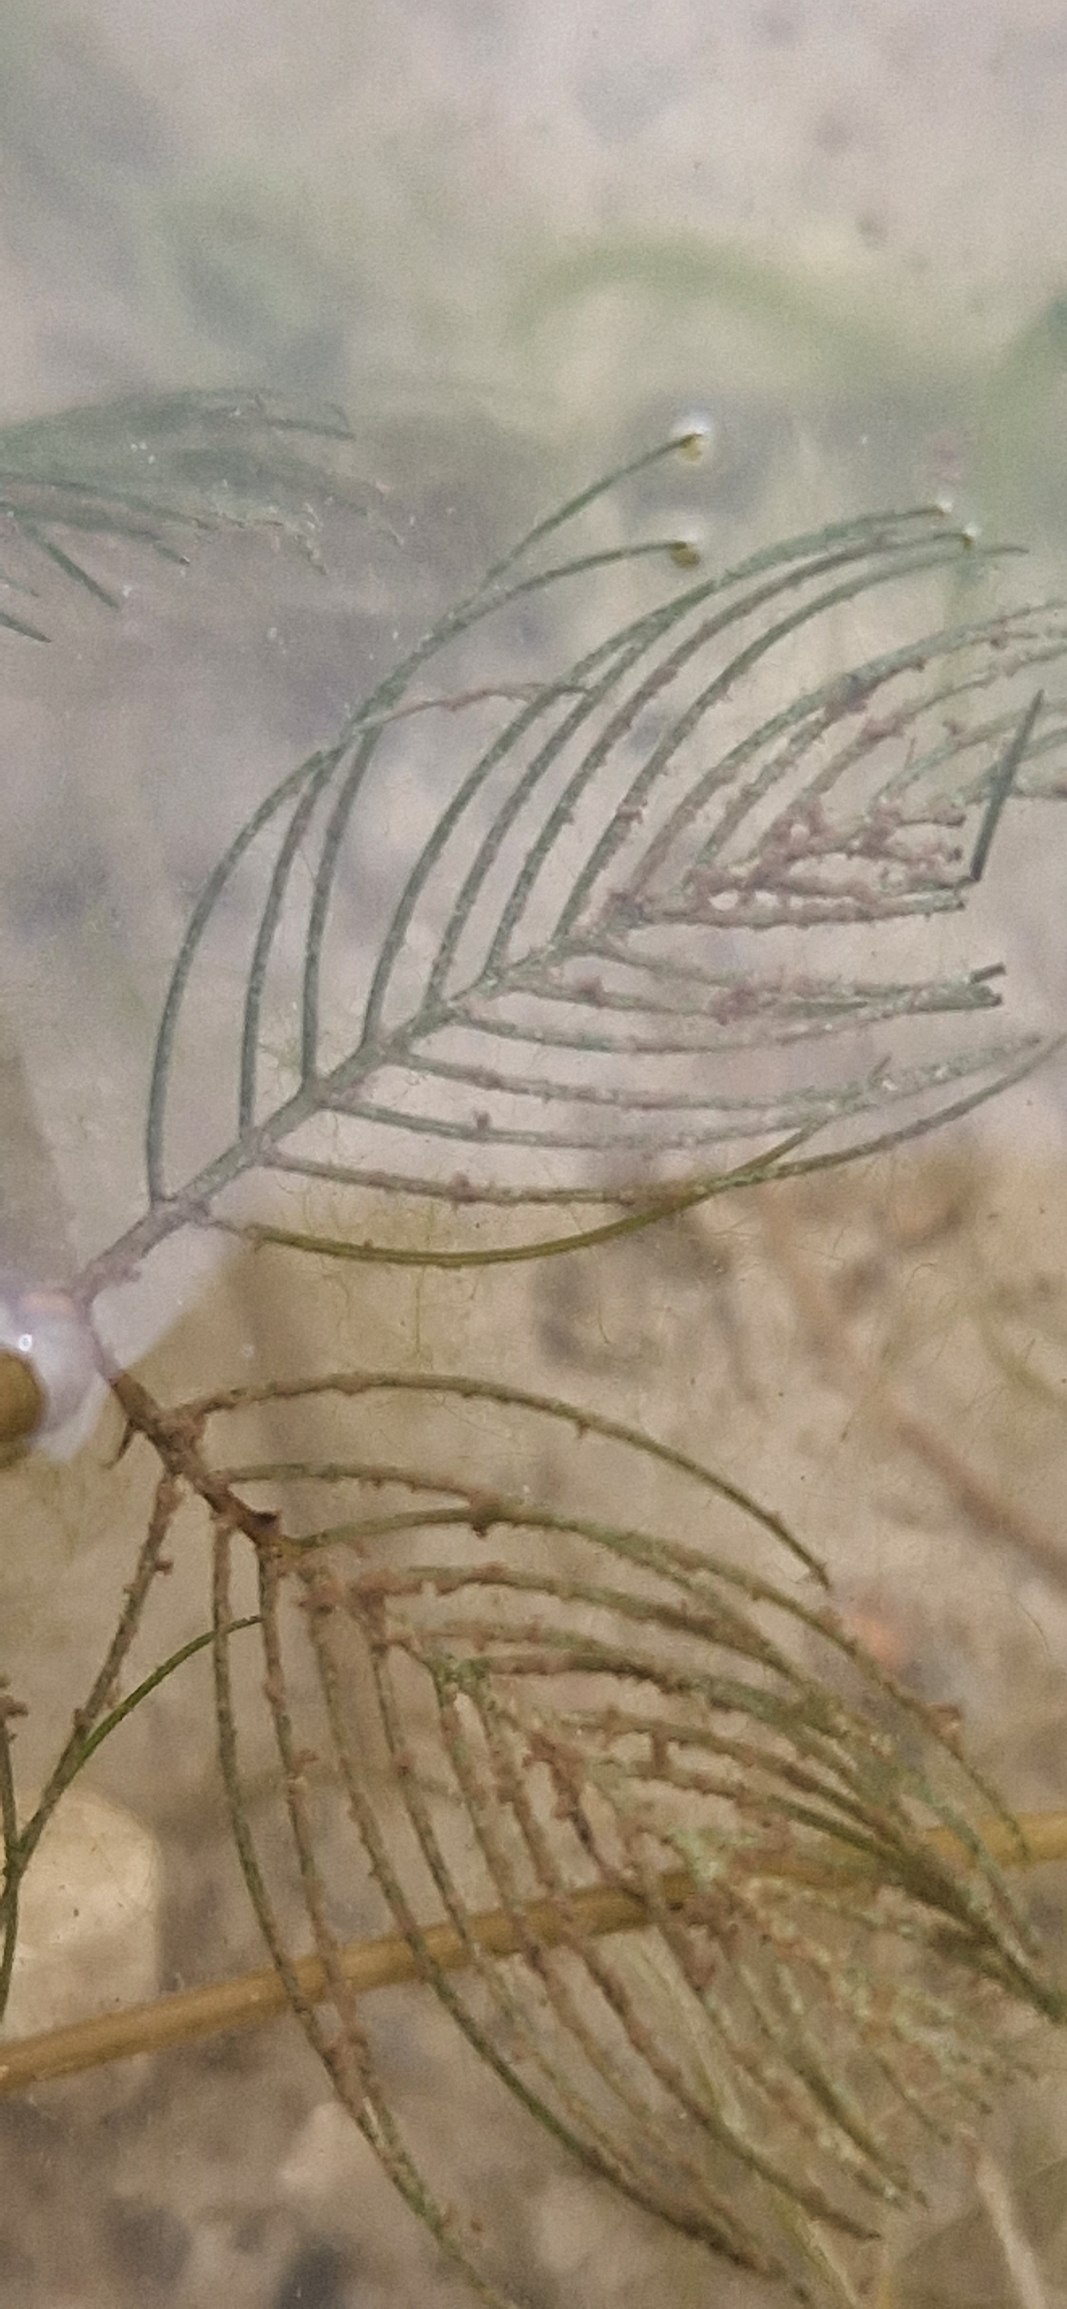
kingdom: Plantae
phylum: Tracheophyta
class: Magnoliopsida
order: Saxifragales
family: Haloragaceae
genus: Myriophyllum
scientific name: Myriophyllum spicatum
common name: Aks-tusindblad
